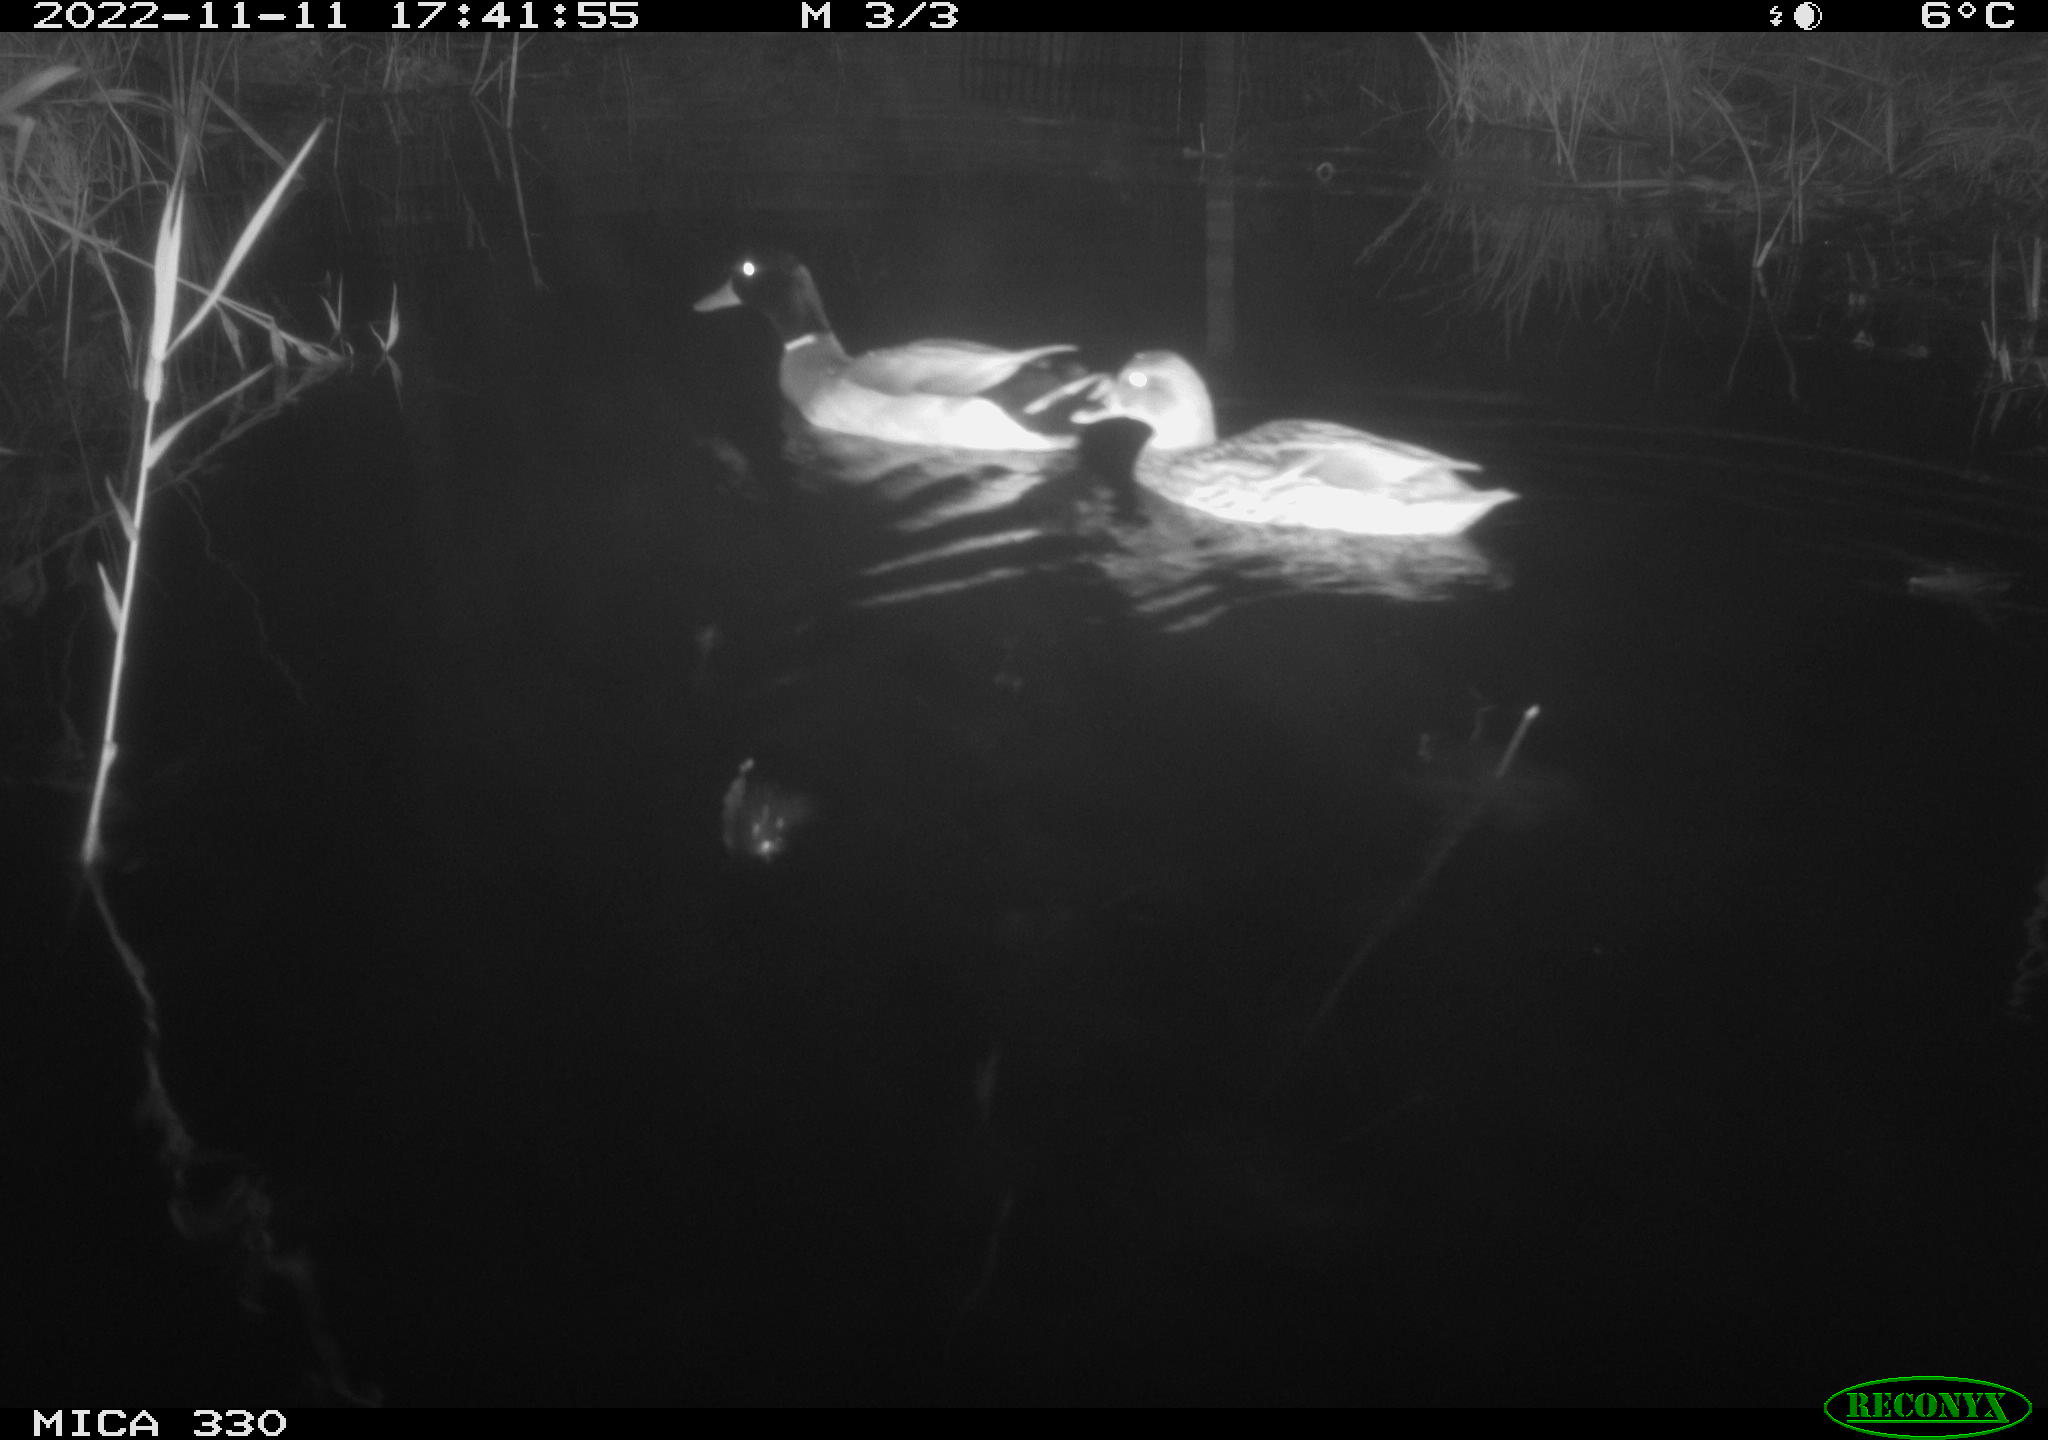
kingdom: Animalia
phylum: Chordata
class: Aves
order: Anseriformes
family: Anatidae
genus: Anas
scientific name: Anas
